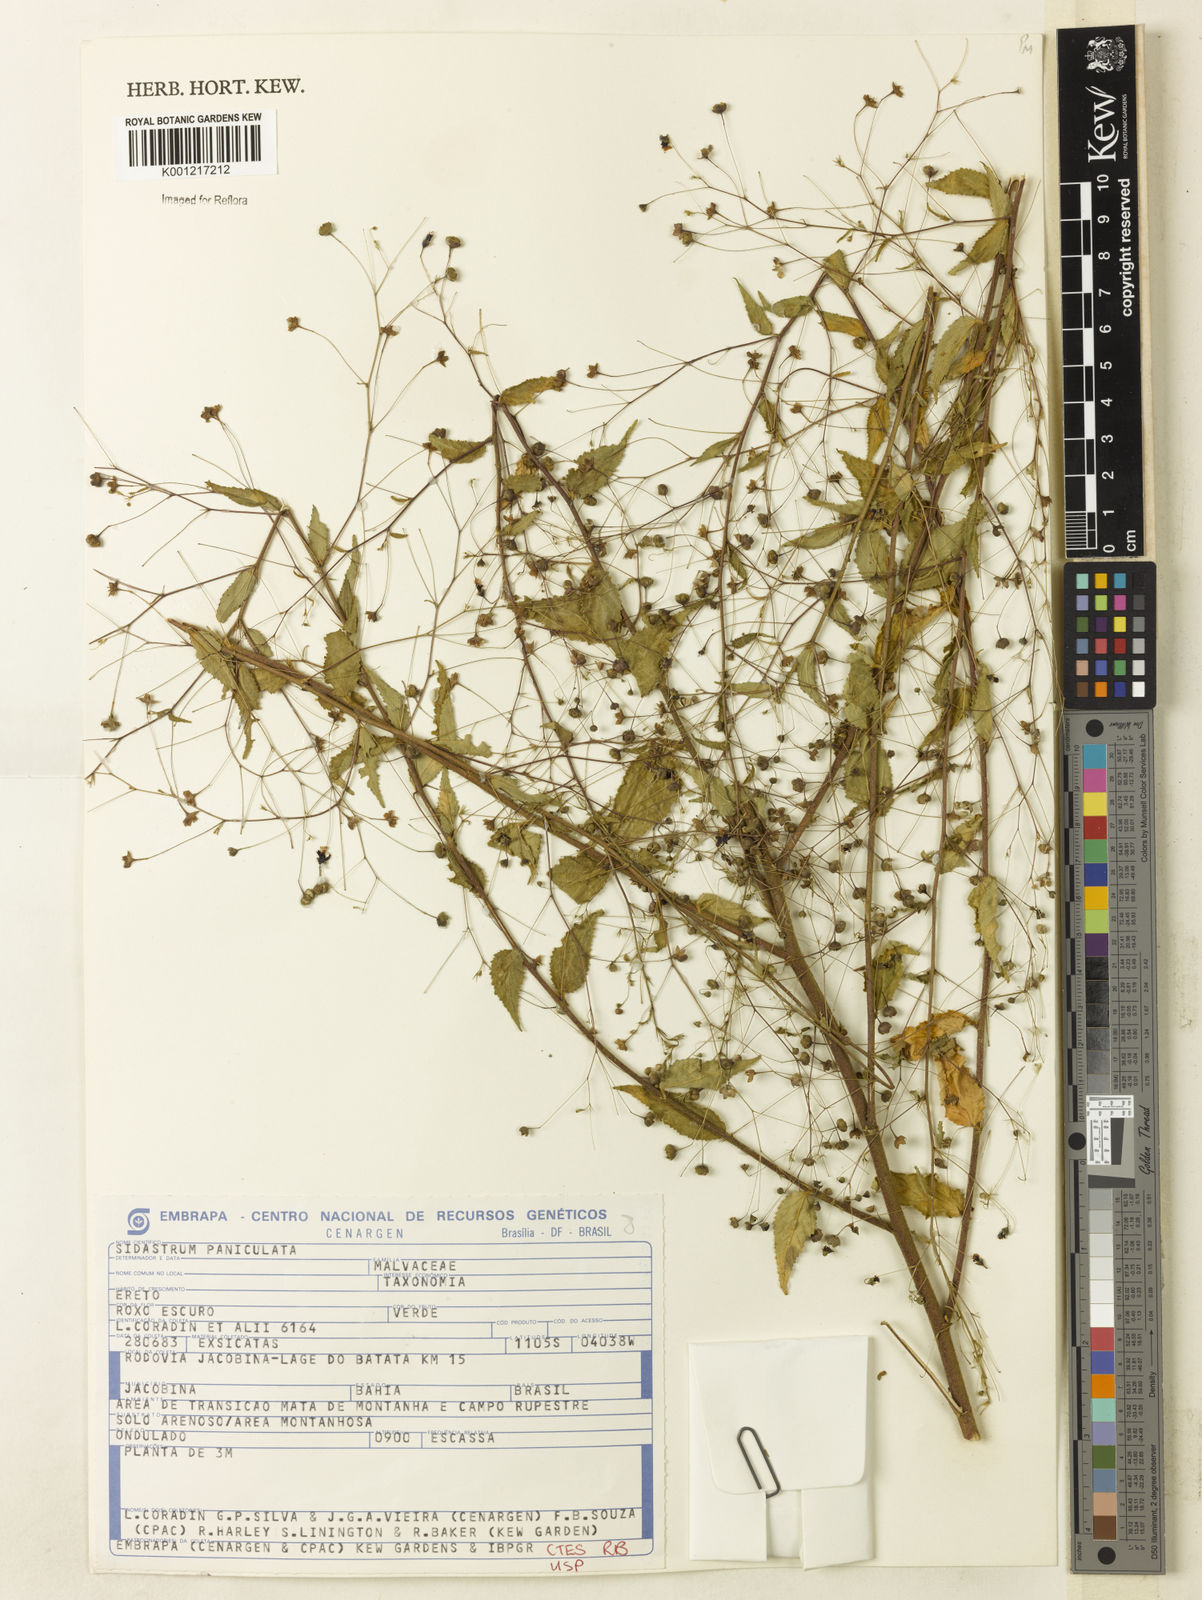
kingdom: Plantae
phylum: Tracheophyta
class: Magnoliopsida
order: Malvales
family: Malvaceae
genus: Sidastrum
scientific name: Sidastrum paniculatum
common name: Panicled sandmallow
